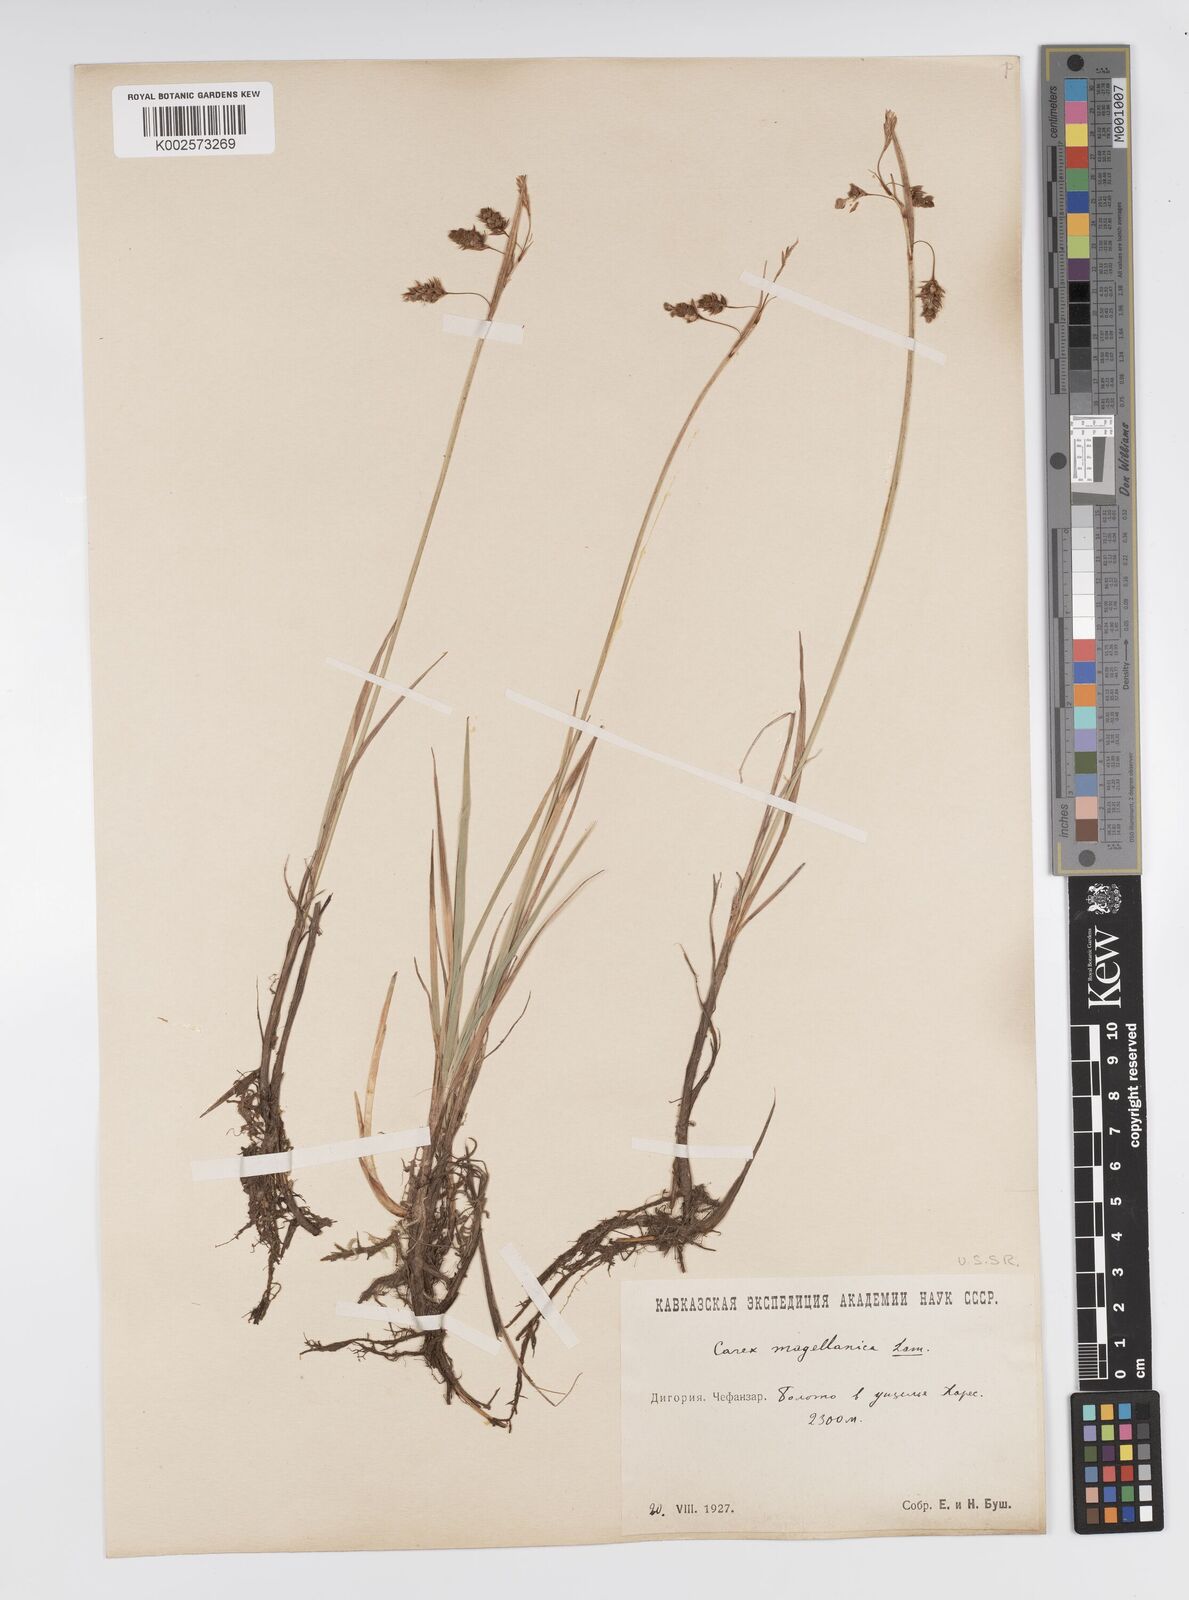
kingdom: Plantae
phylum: Tracheophyta
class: Liliopsida
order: Poales
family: Cyperaceae
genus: Carex
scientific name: Carex magellanica
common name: Bog sedge
